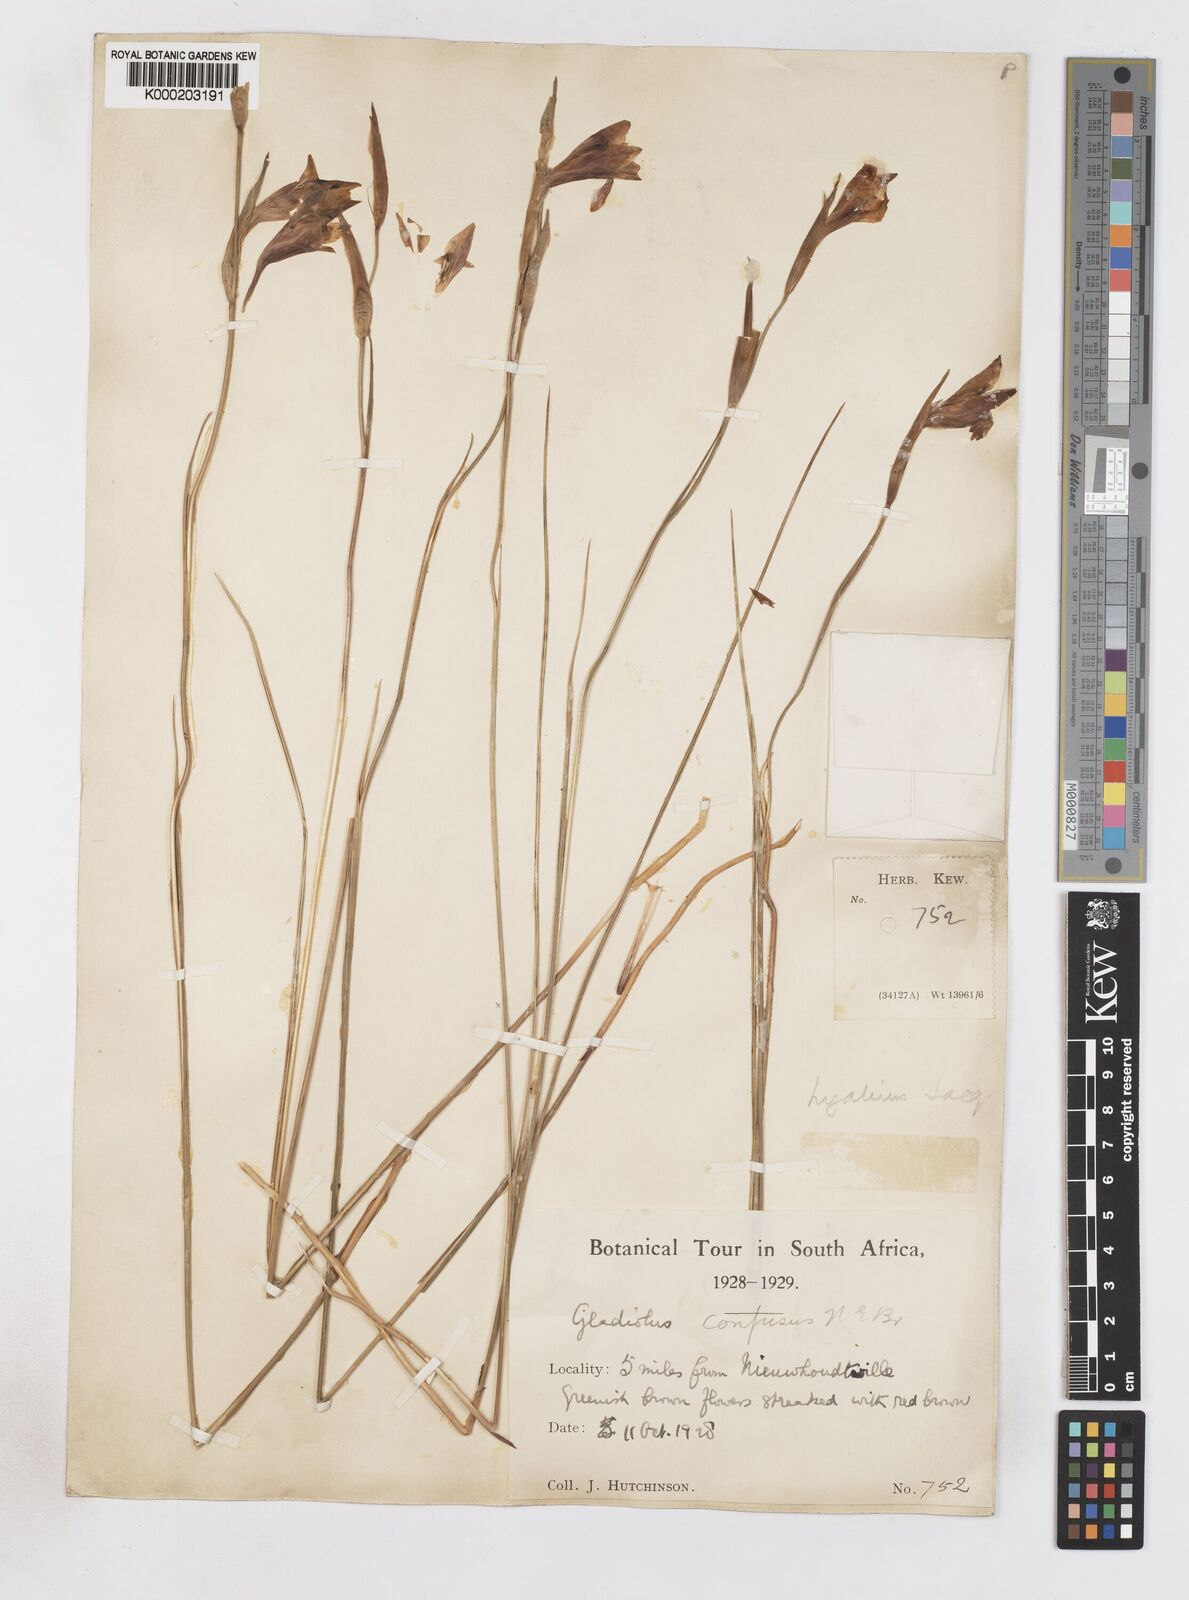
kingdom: Plantae
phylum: Tracheophyta
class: Liliopsida
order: Asparagales
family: Iridaceae
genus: Gladiolus
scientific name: Gladiolus hyalinus
